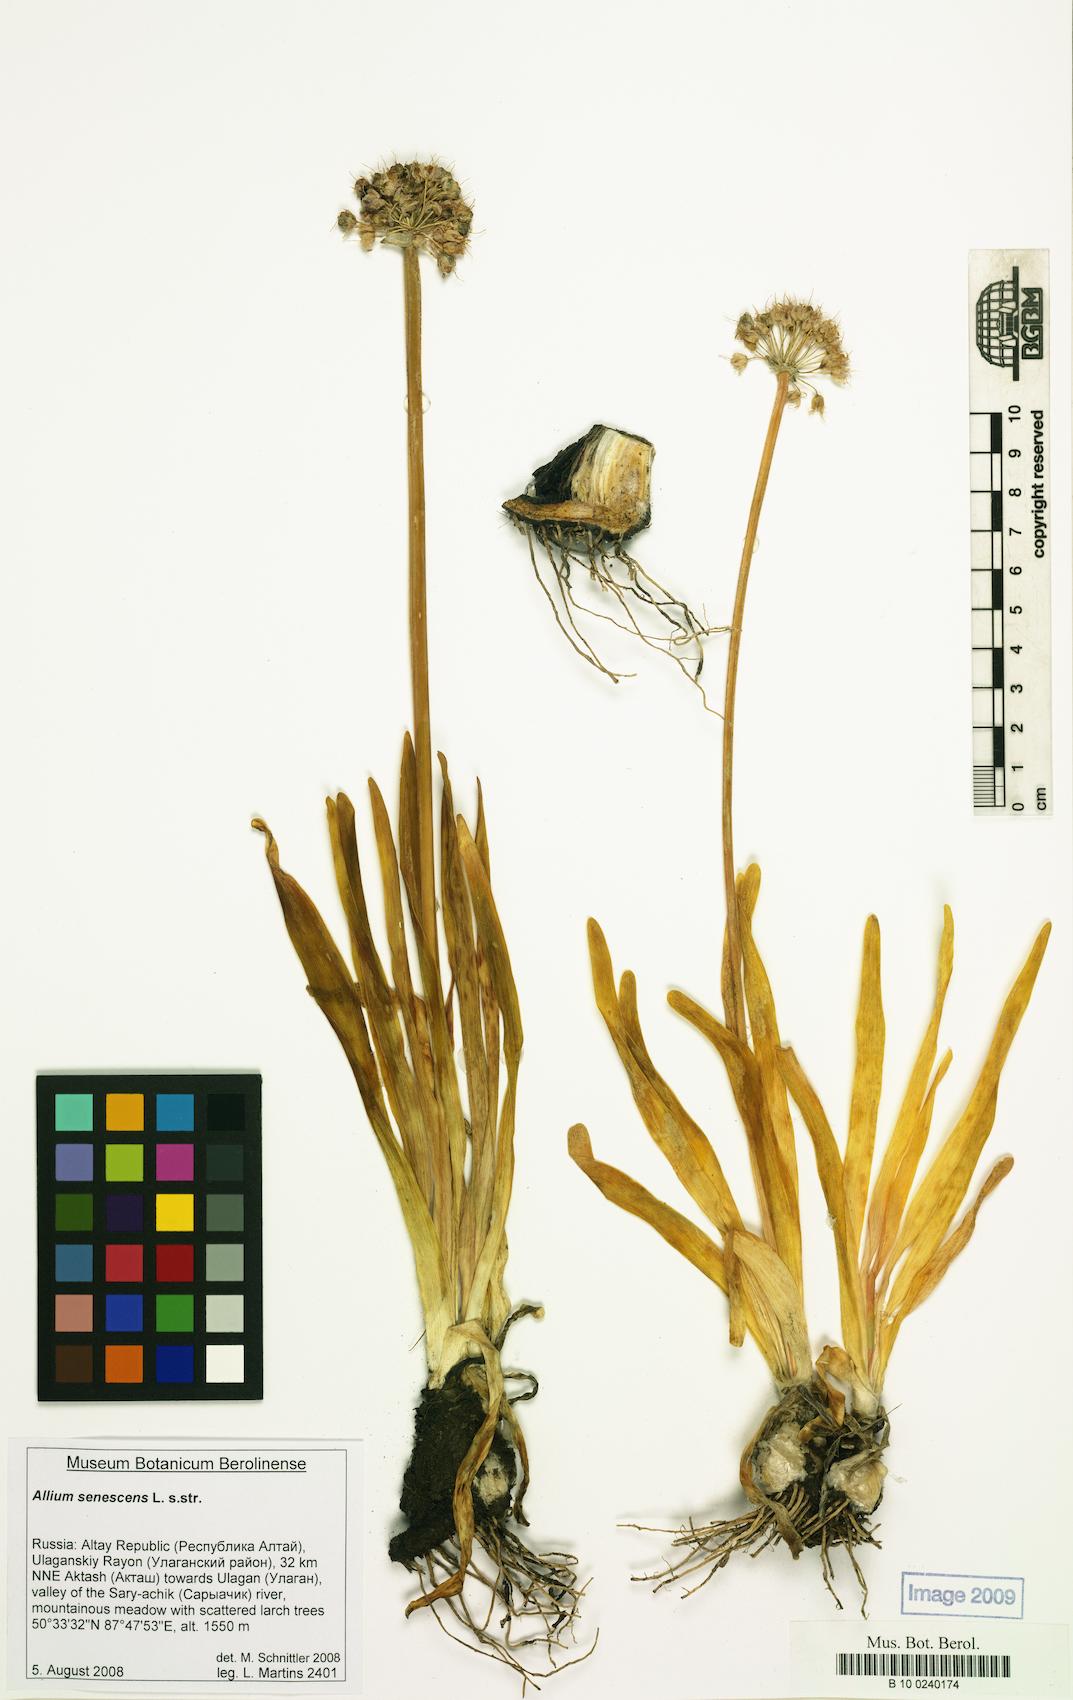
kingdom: Plantae
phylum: Tracheophyta
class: Liliopsida
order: Asparagales
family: Amaryllidaceae
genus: Allium
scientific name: Allium senescens
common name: German garlic
